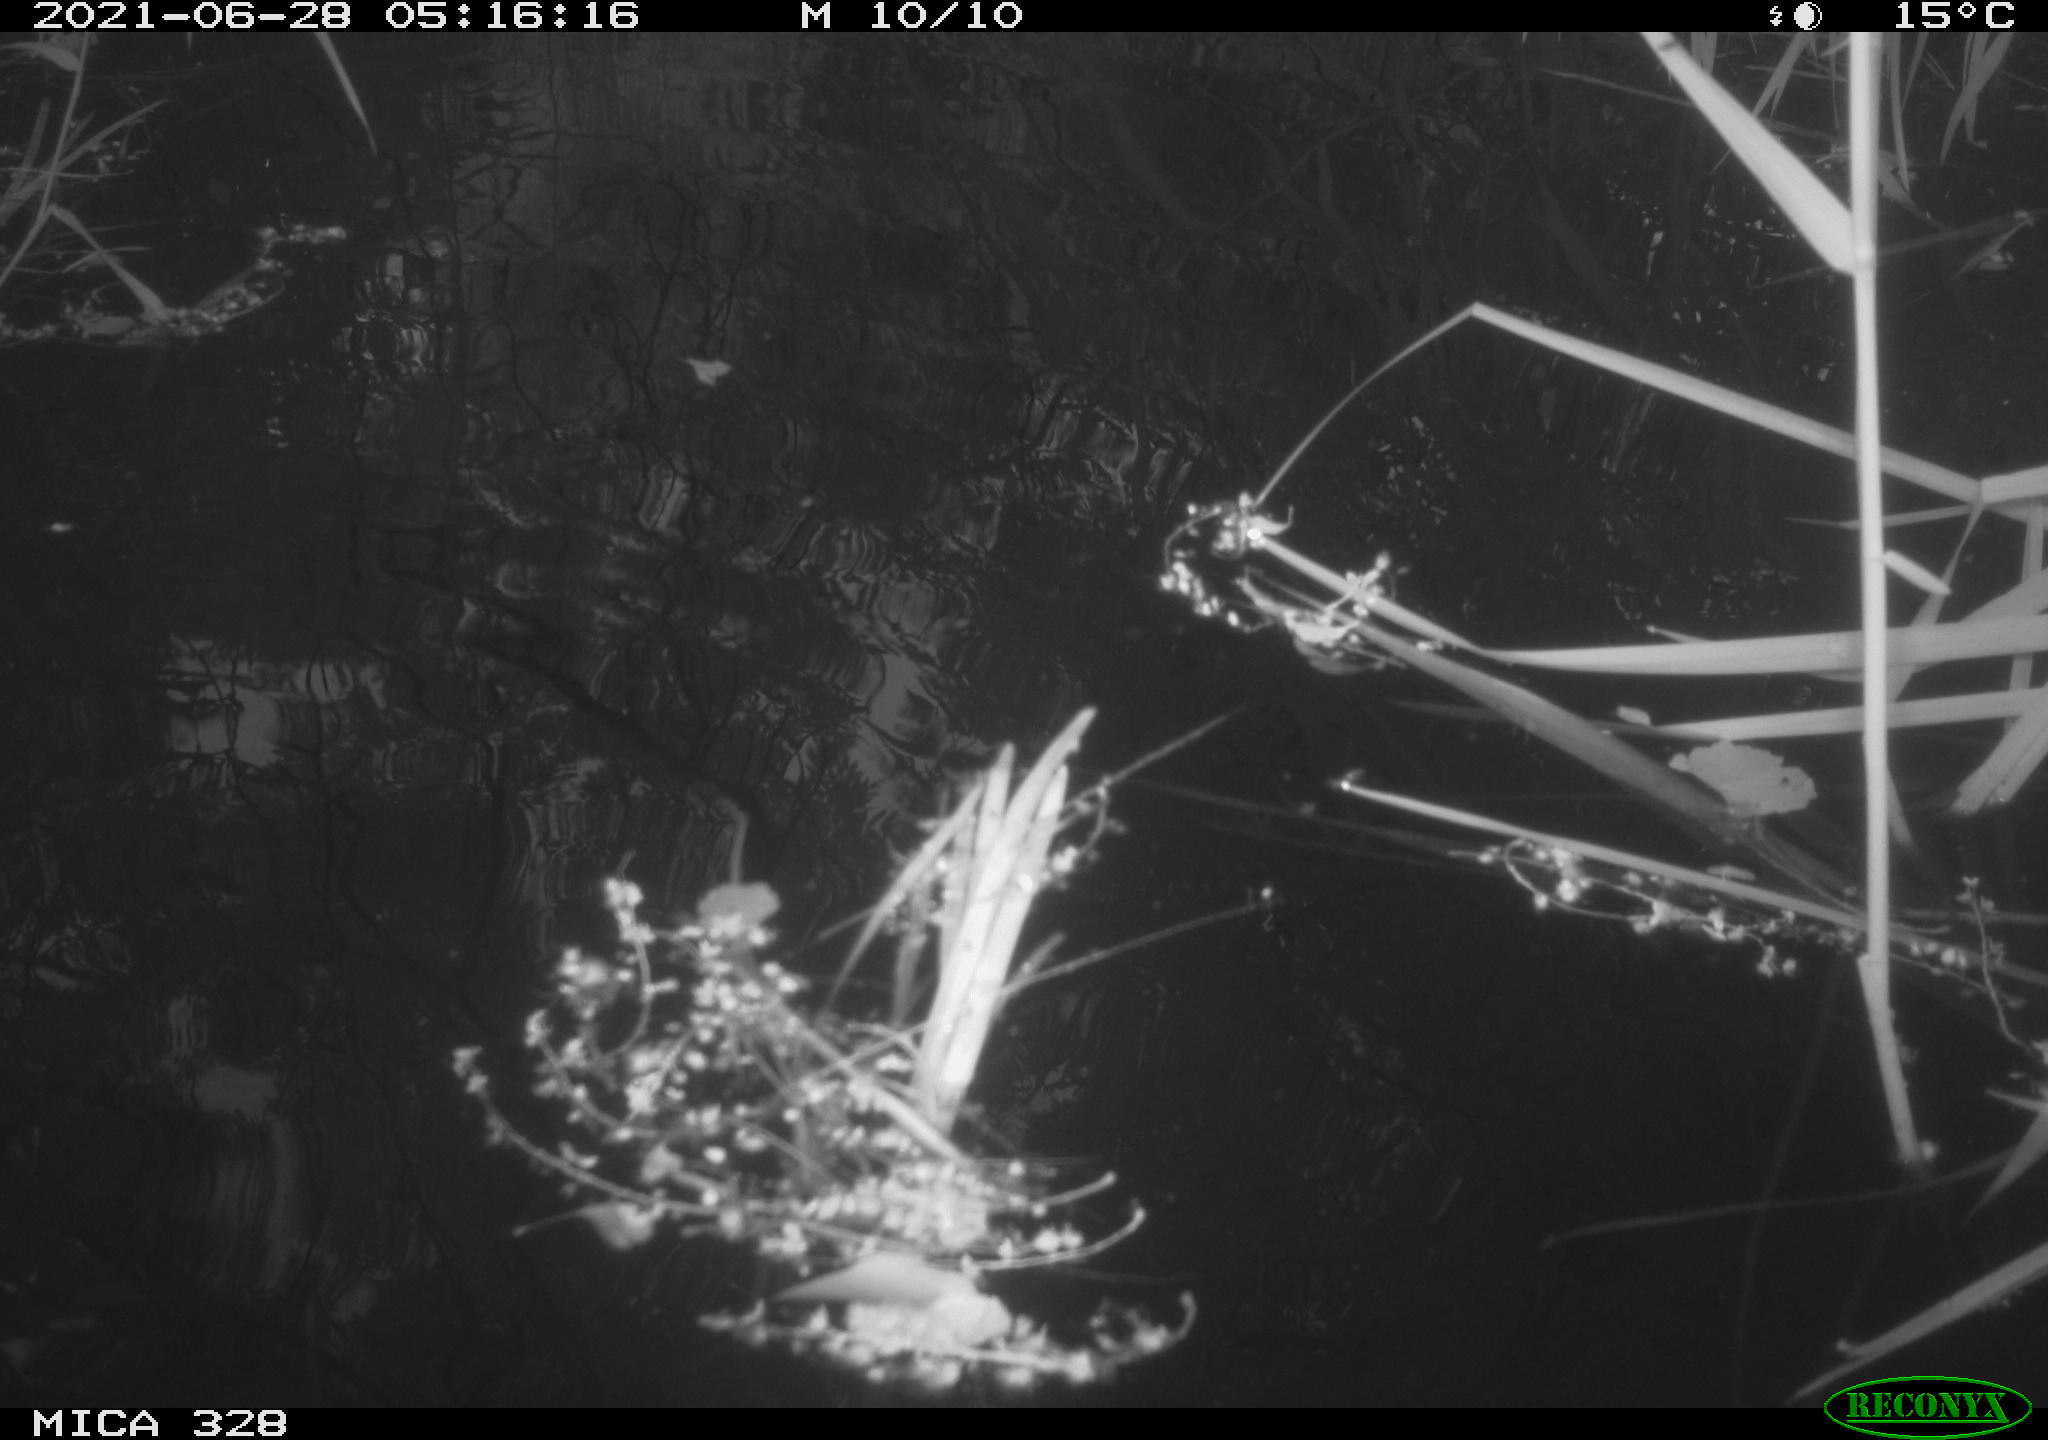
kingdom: Animalia
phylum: Chordata
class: Aves
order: Anseriformes
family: Anatidae
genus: Aix
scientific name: Aix galericulata
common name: Mandarin duck
